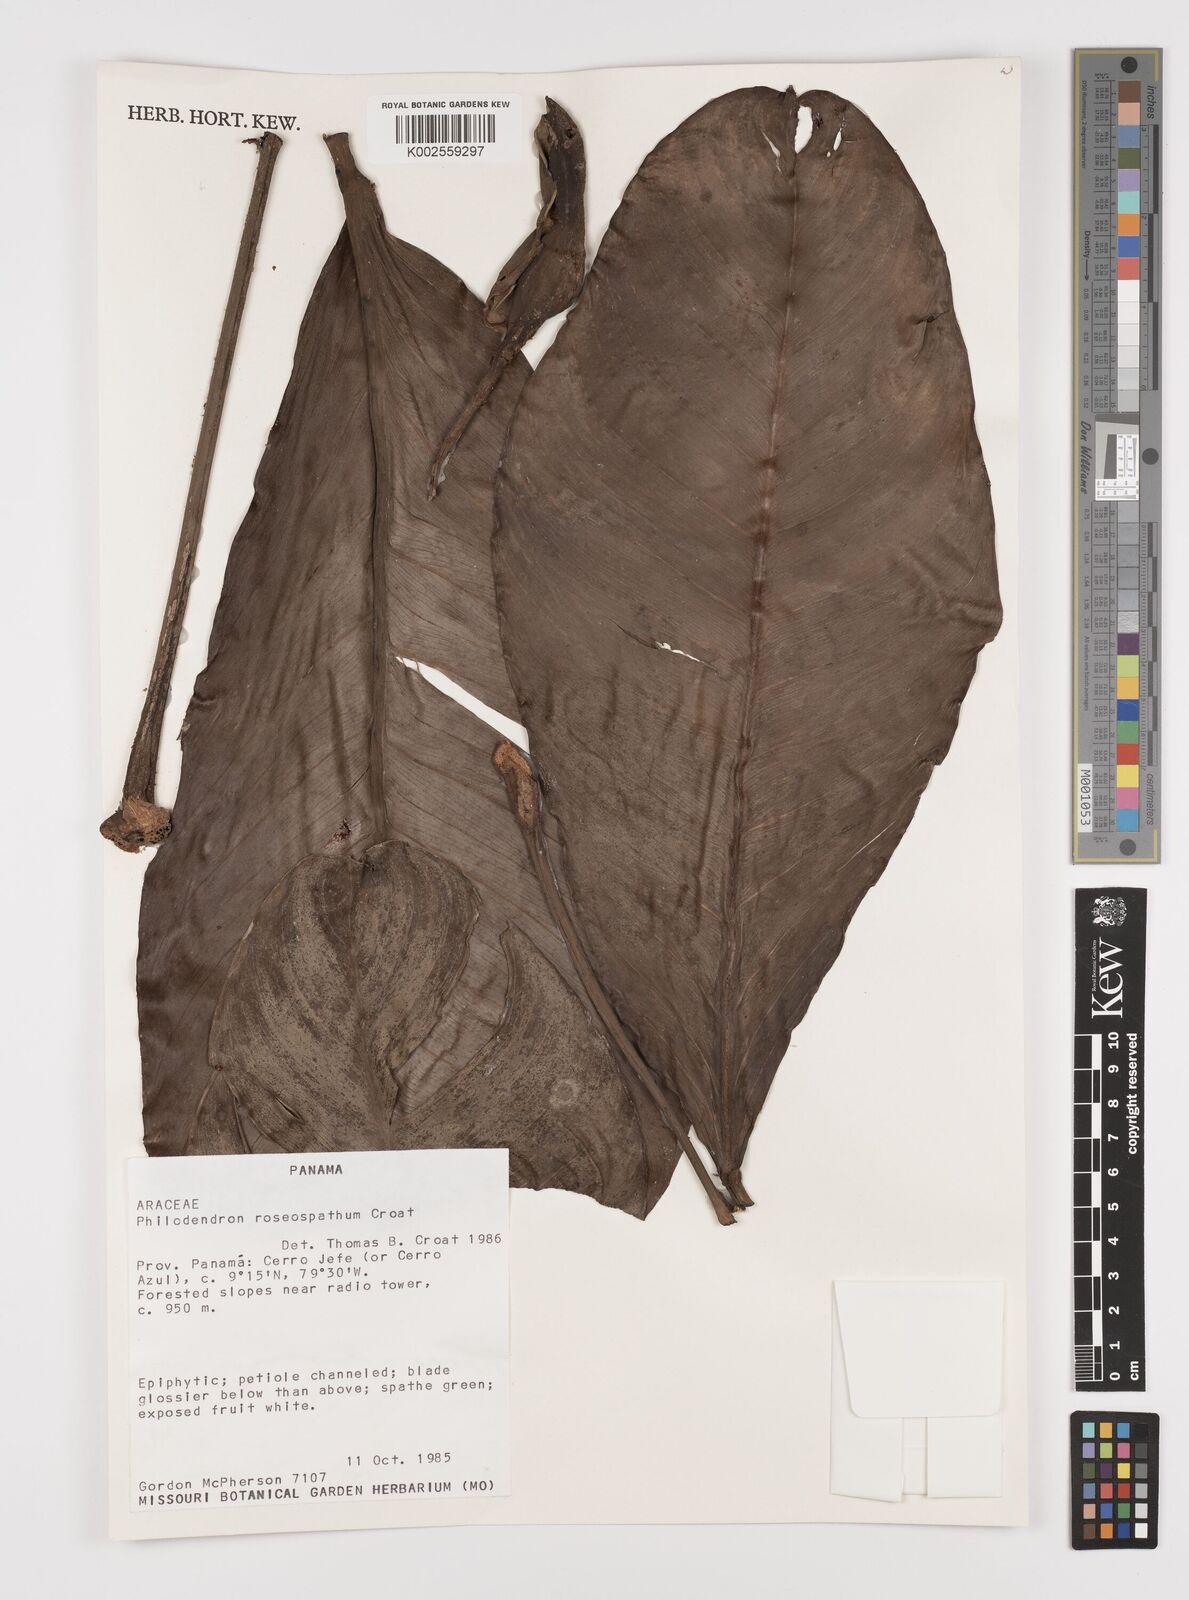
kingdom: Plantae
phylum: Tracheophyta
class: Liliopsida
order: Alismatales
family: Araceae
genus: Philodendron
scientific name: Philodendron roseospathum
